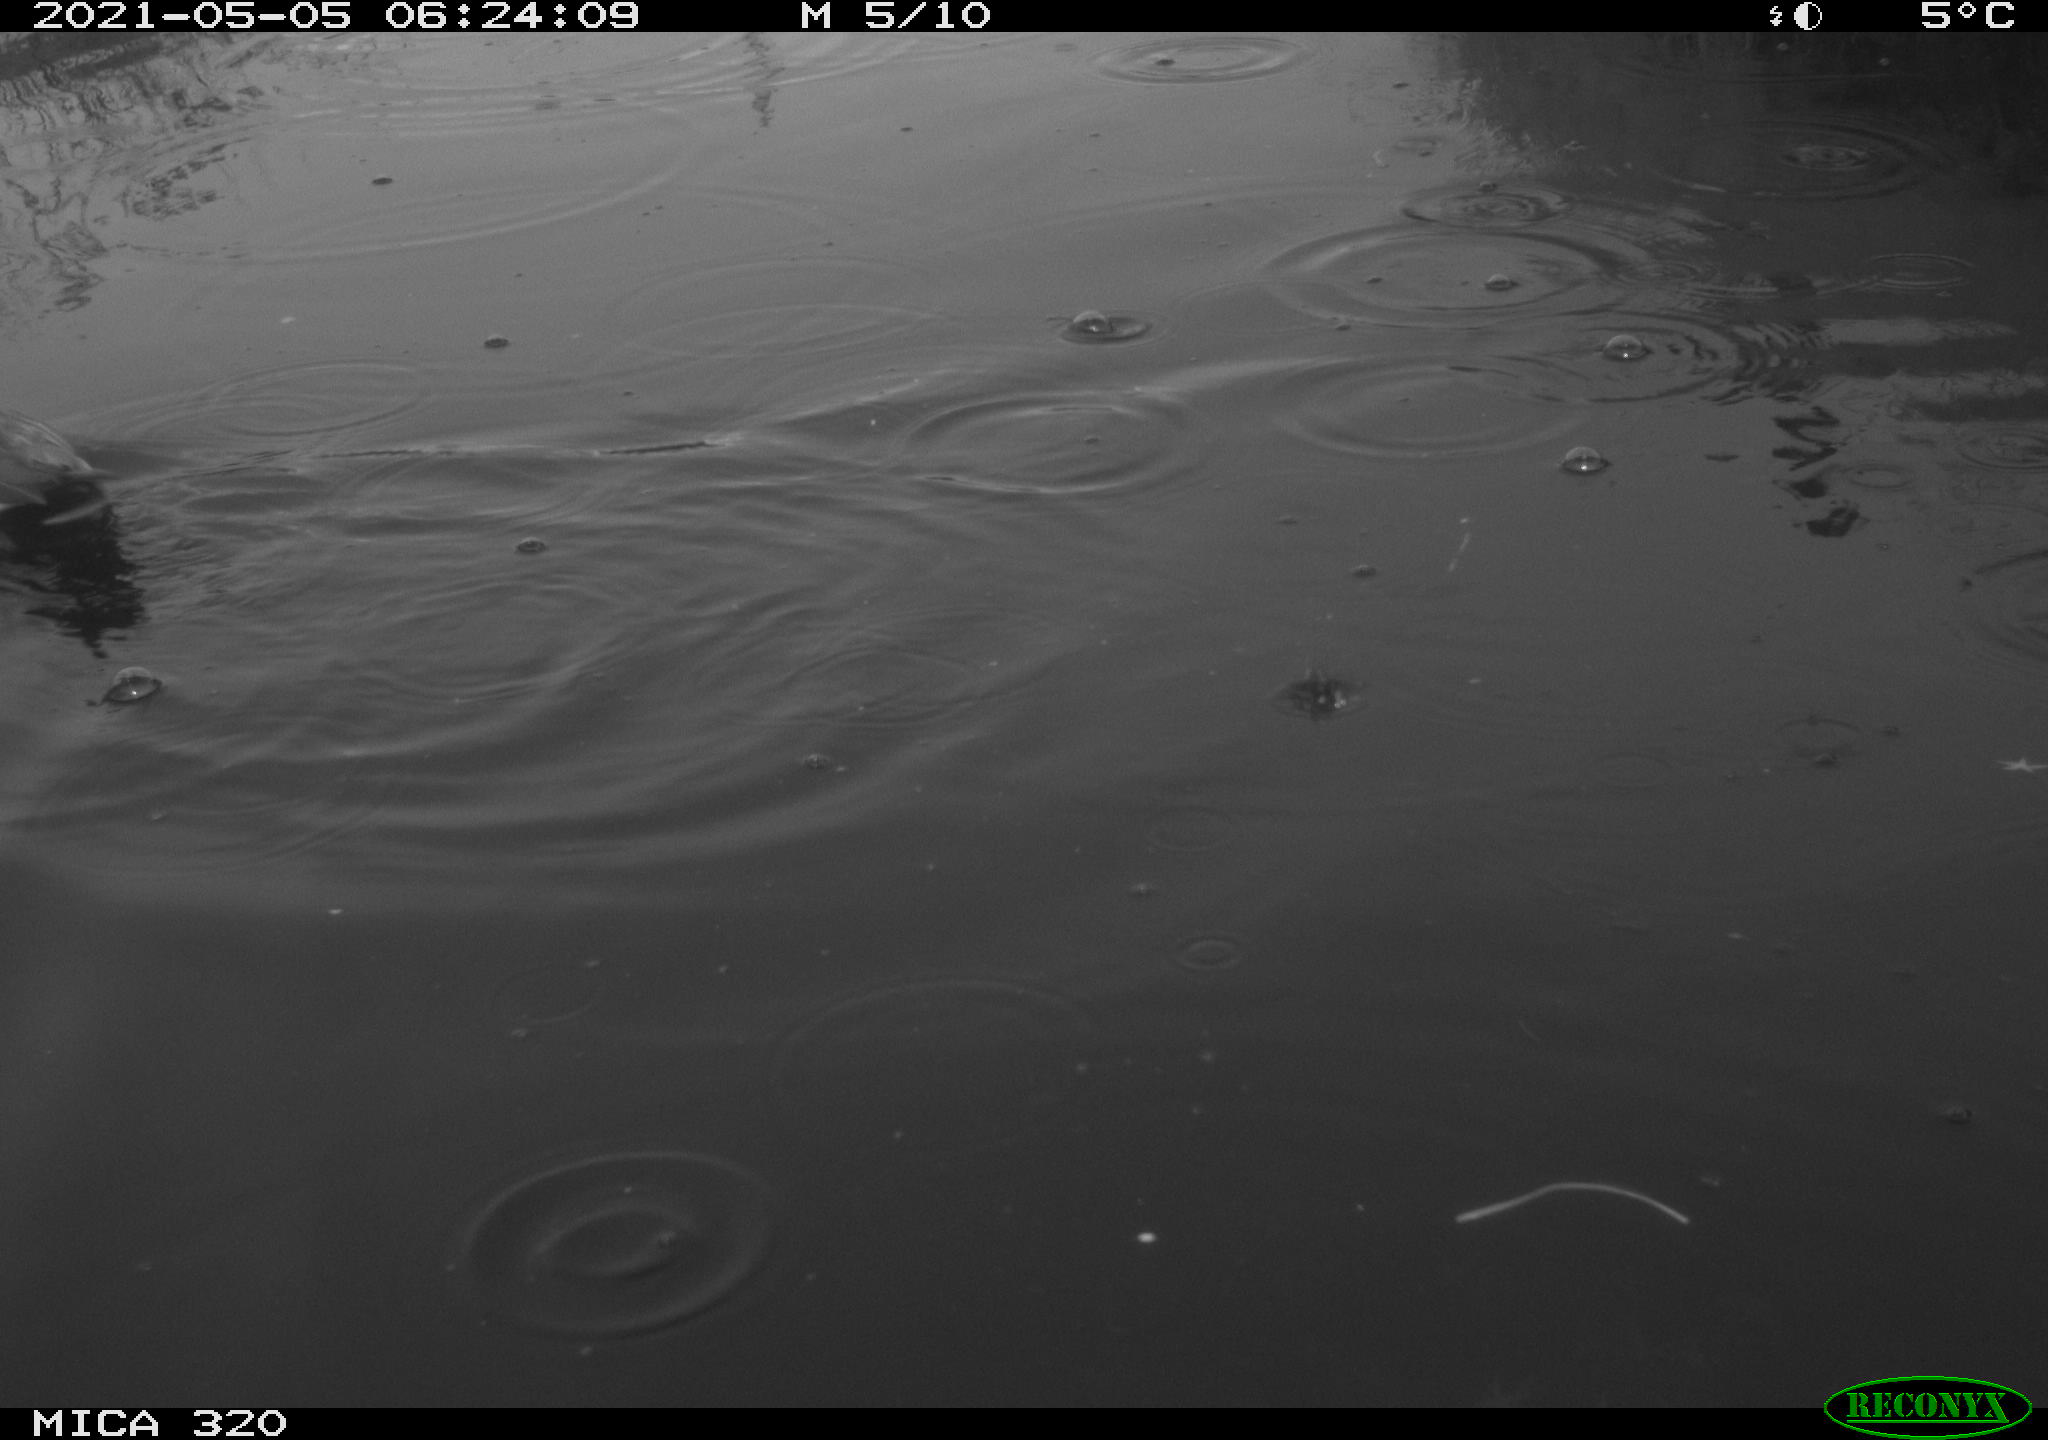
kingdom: Animalia
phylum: Chordata
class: Aves
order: Anseriformes
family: Anatidae
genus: Mareca
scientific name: Mareca strepera
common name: Gadwall
